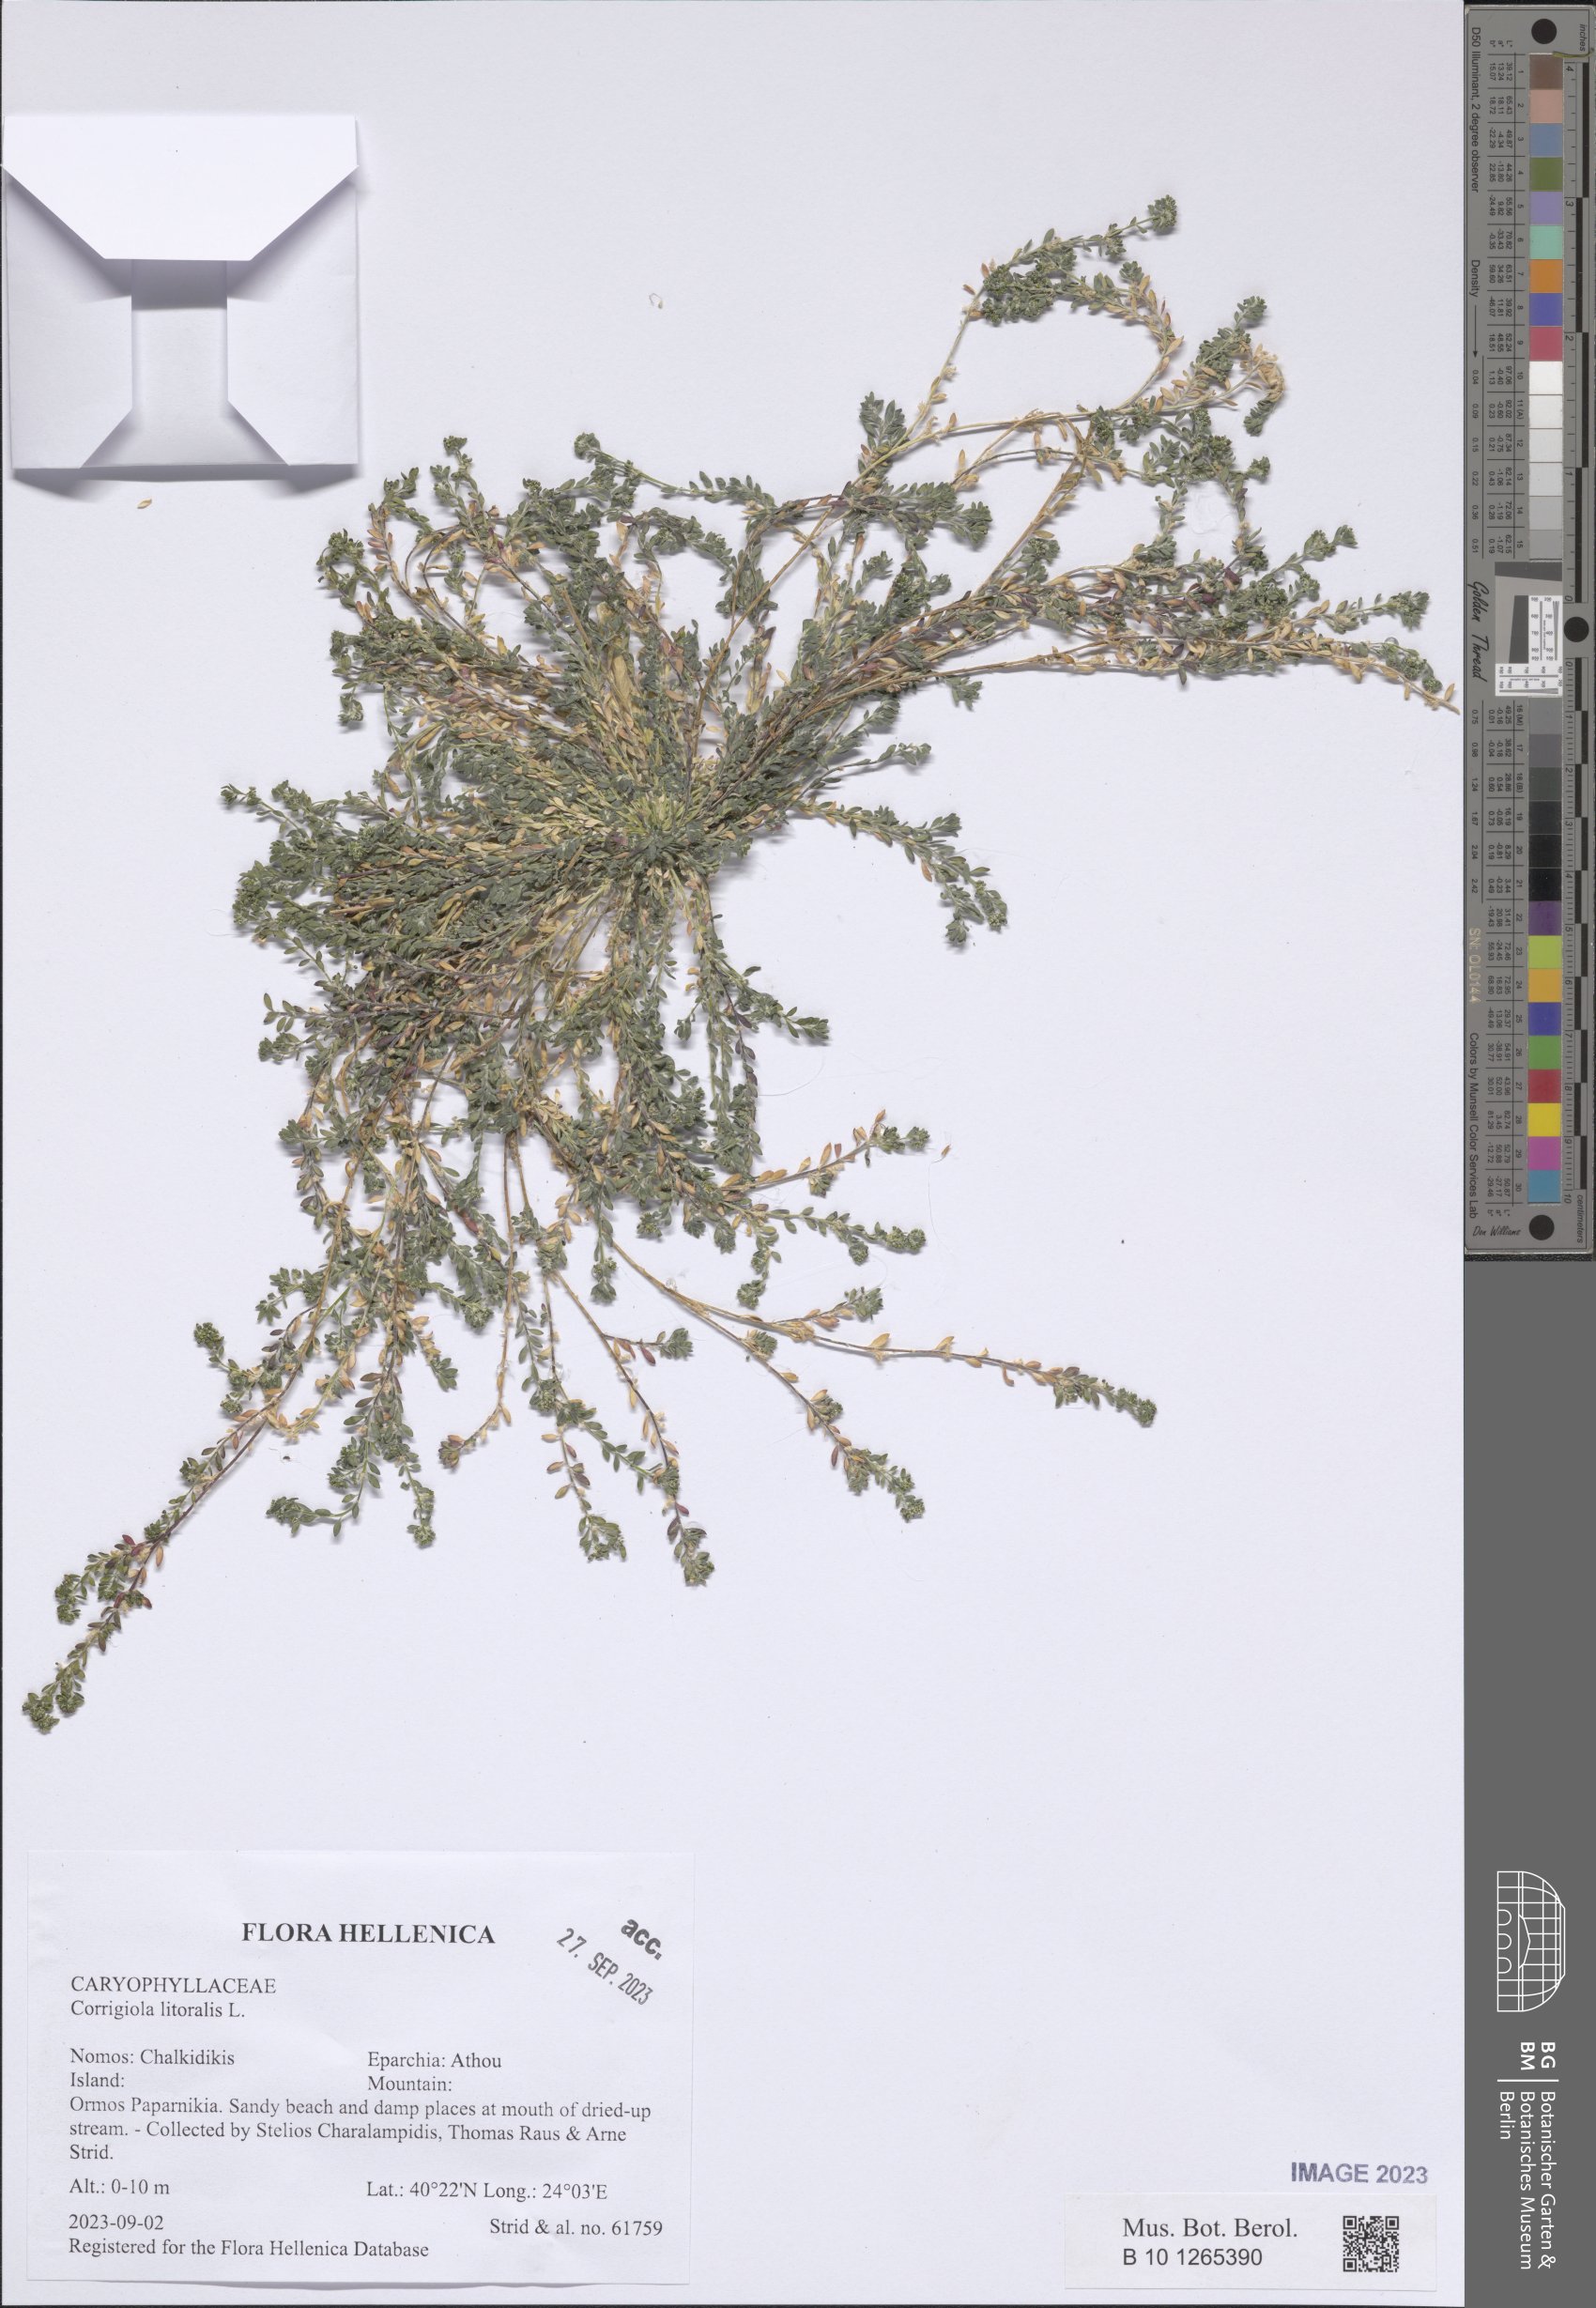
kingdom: Plantae
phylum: Tracheophyta
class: Magnoliopsida
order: Caryophyllales
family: Caryophyllaceae
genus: Corrigiola
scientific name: Corrigiola litoralis
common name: Strapwort
